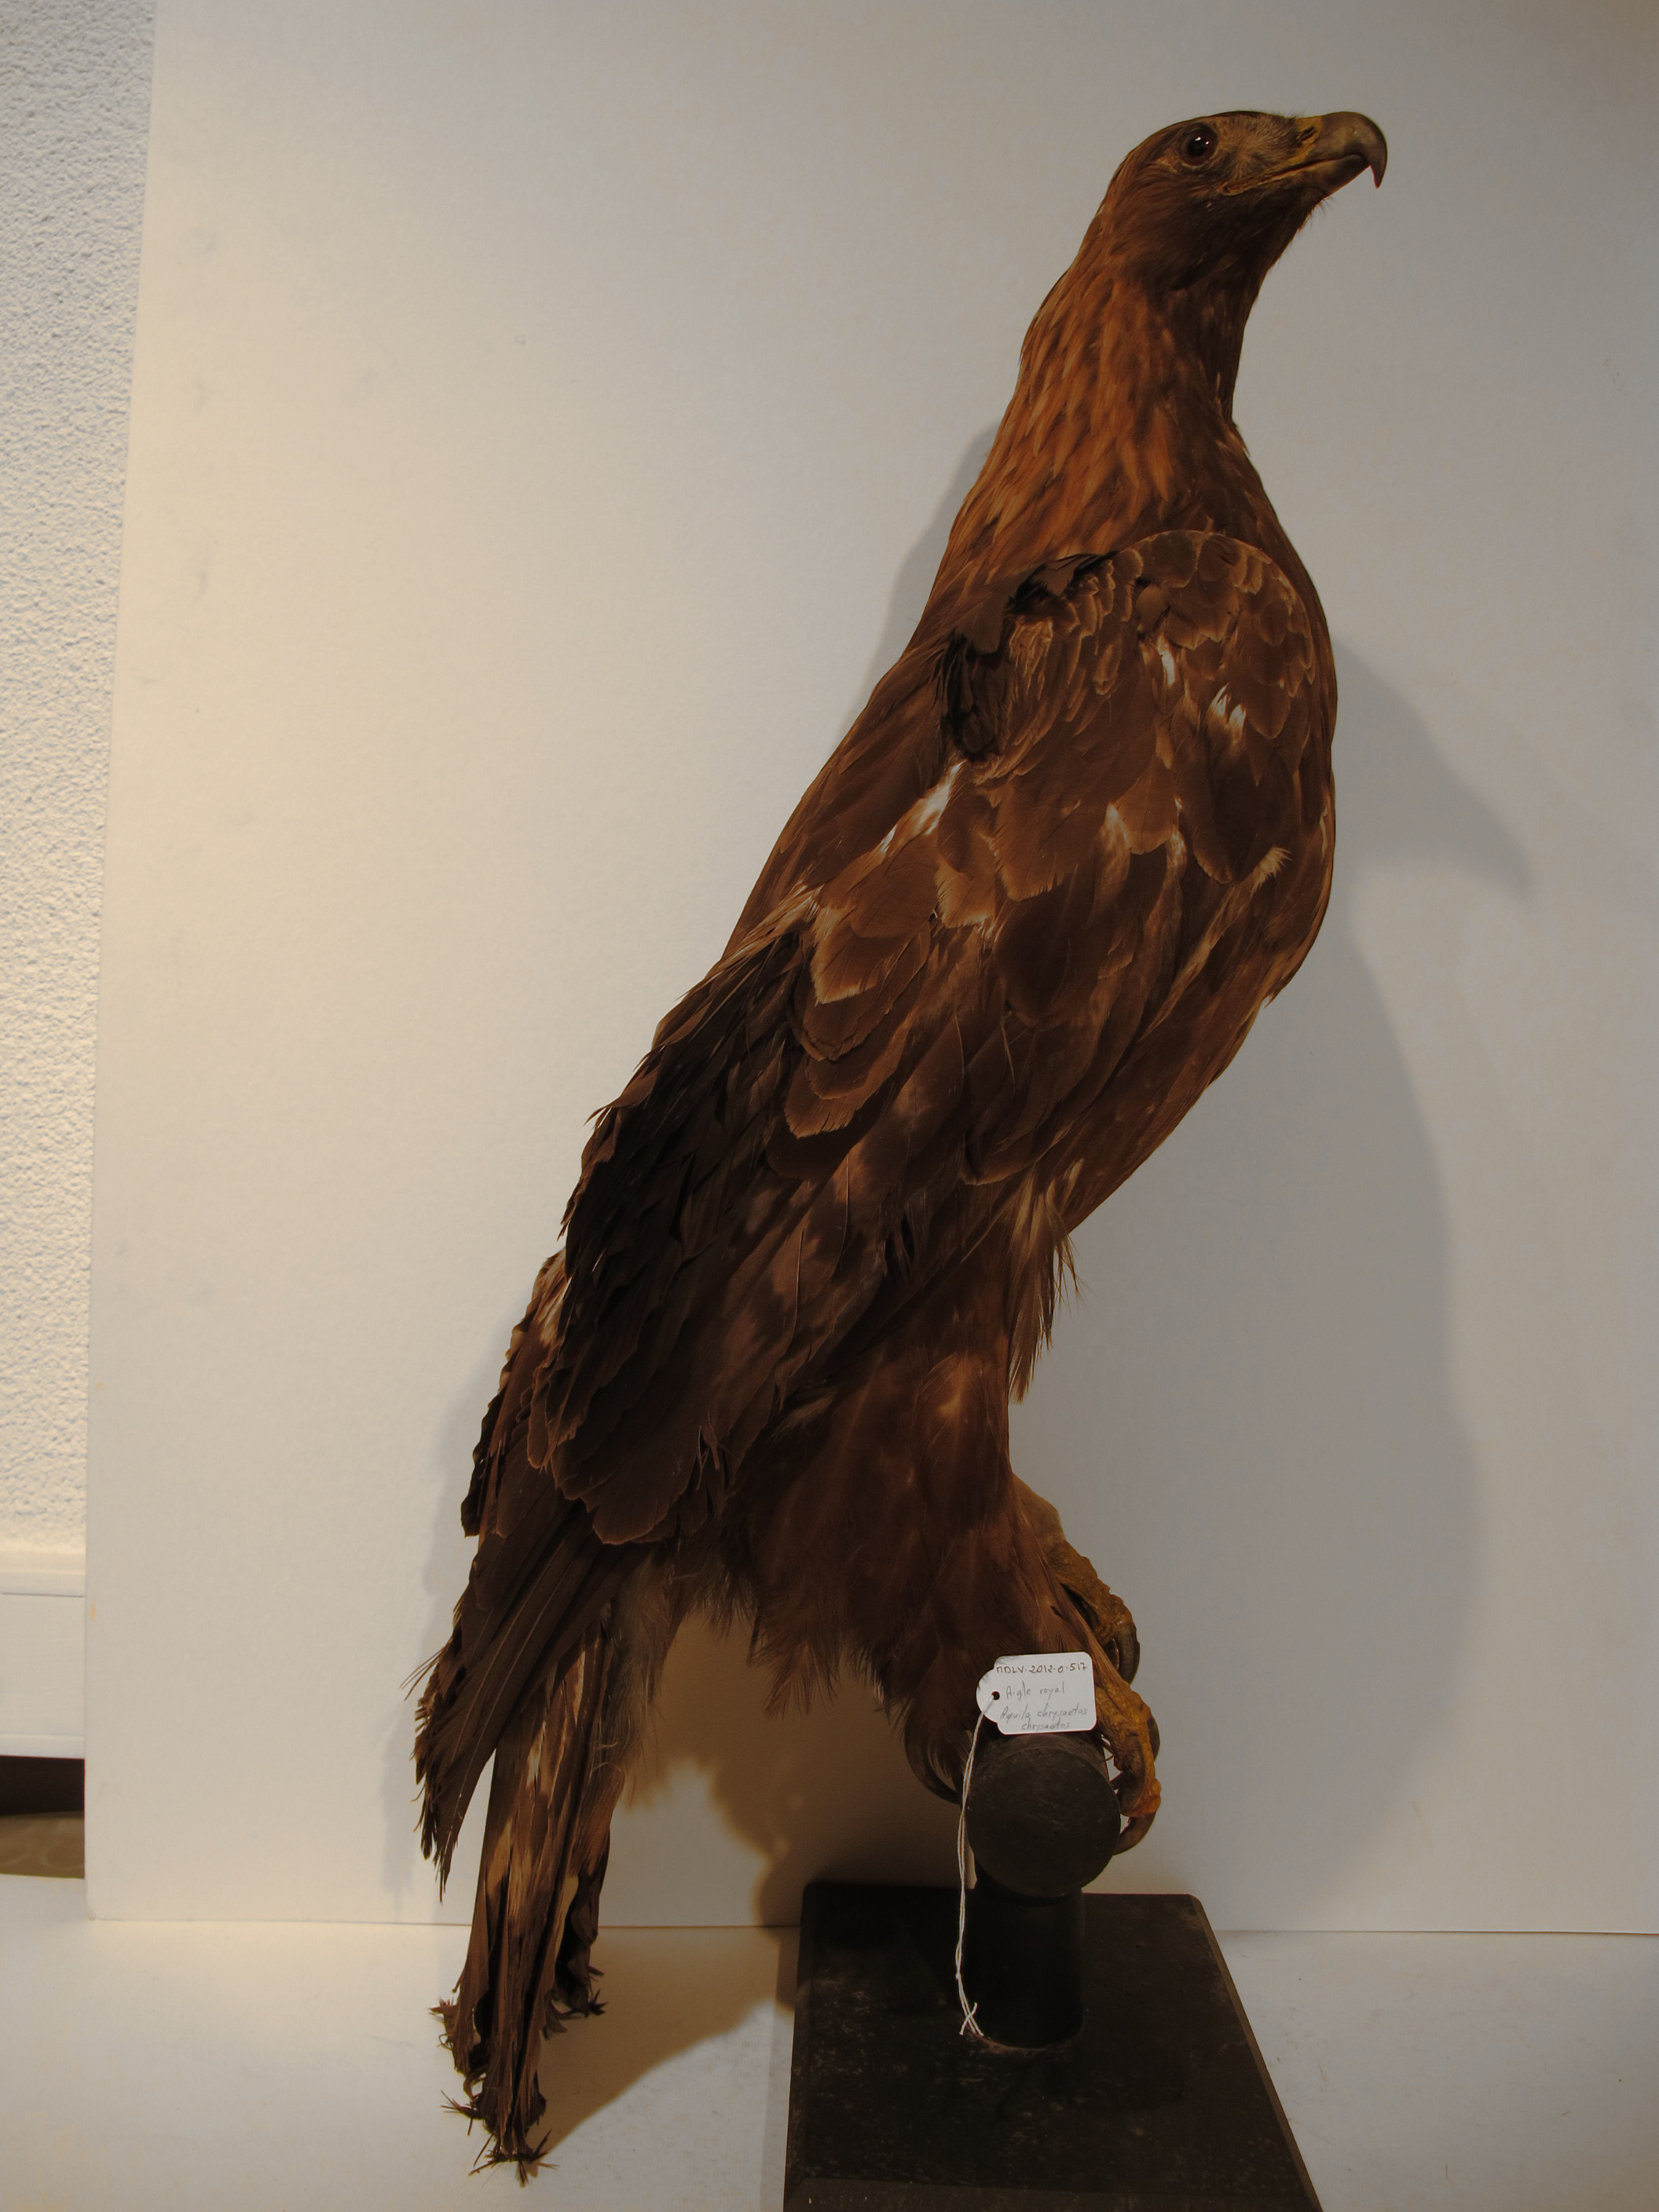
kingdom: Animalia
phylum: Chordata
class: Aves
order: Accipitriformes
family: Accipitridae
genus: Aquila
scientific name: Aquila chrysaetos
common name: Golden Eagle
